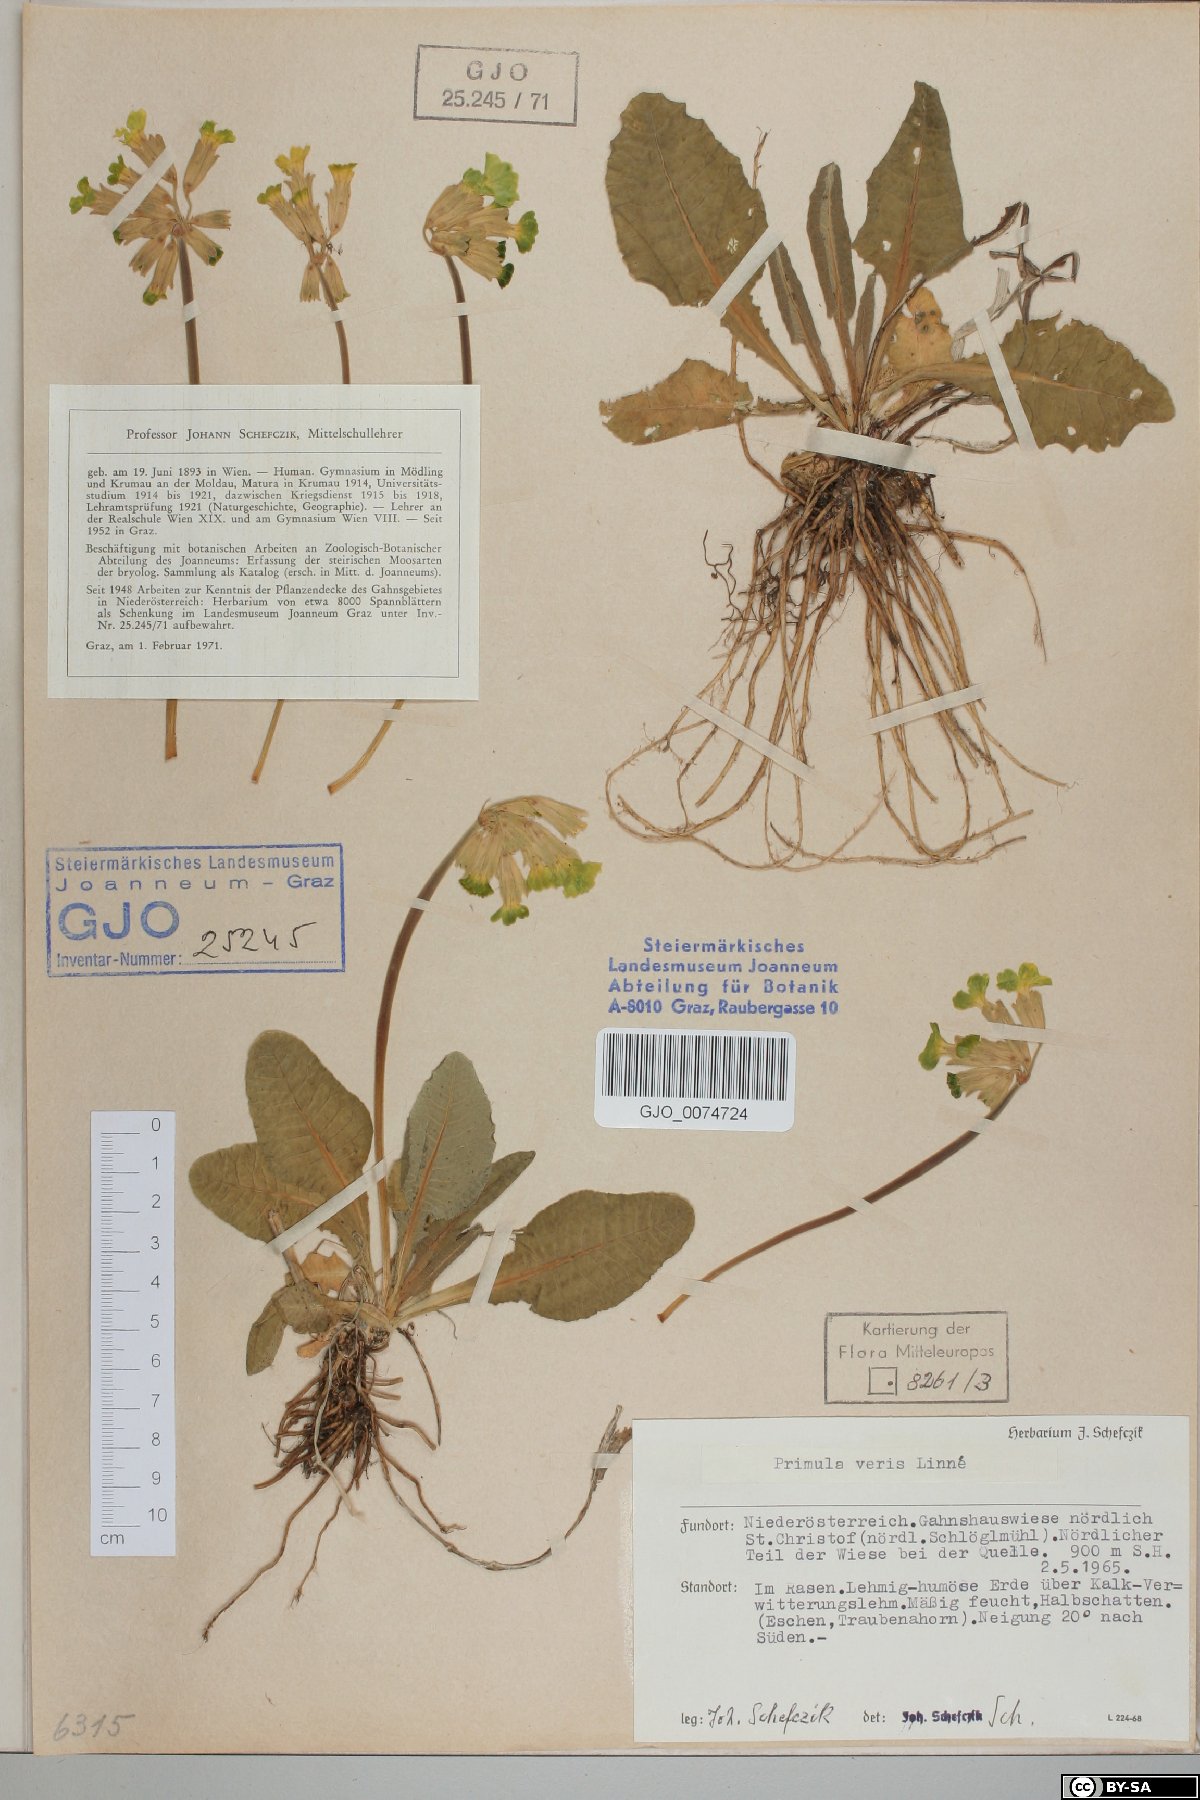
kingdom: Plantae
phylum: Tracheophyta
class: Magnoliopsida
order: Ericales
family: Primulaceae
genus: Primula
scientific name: Primula veris
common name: Cowslip
